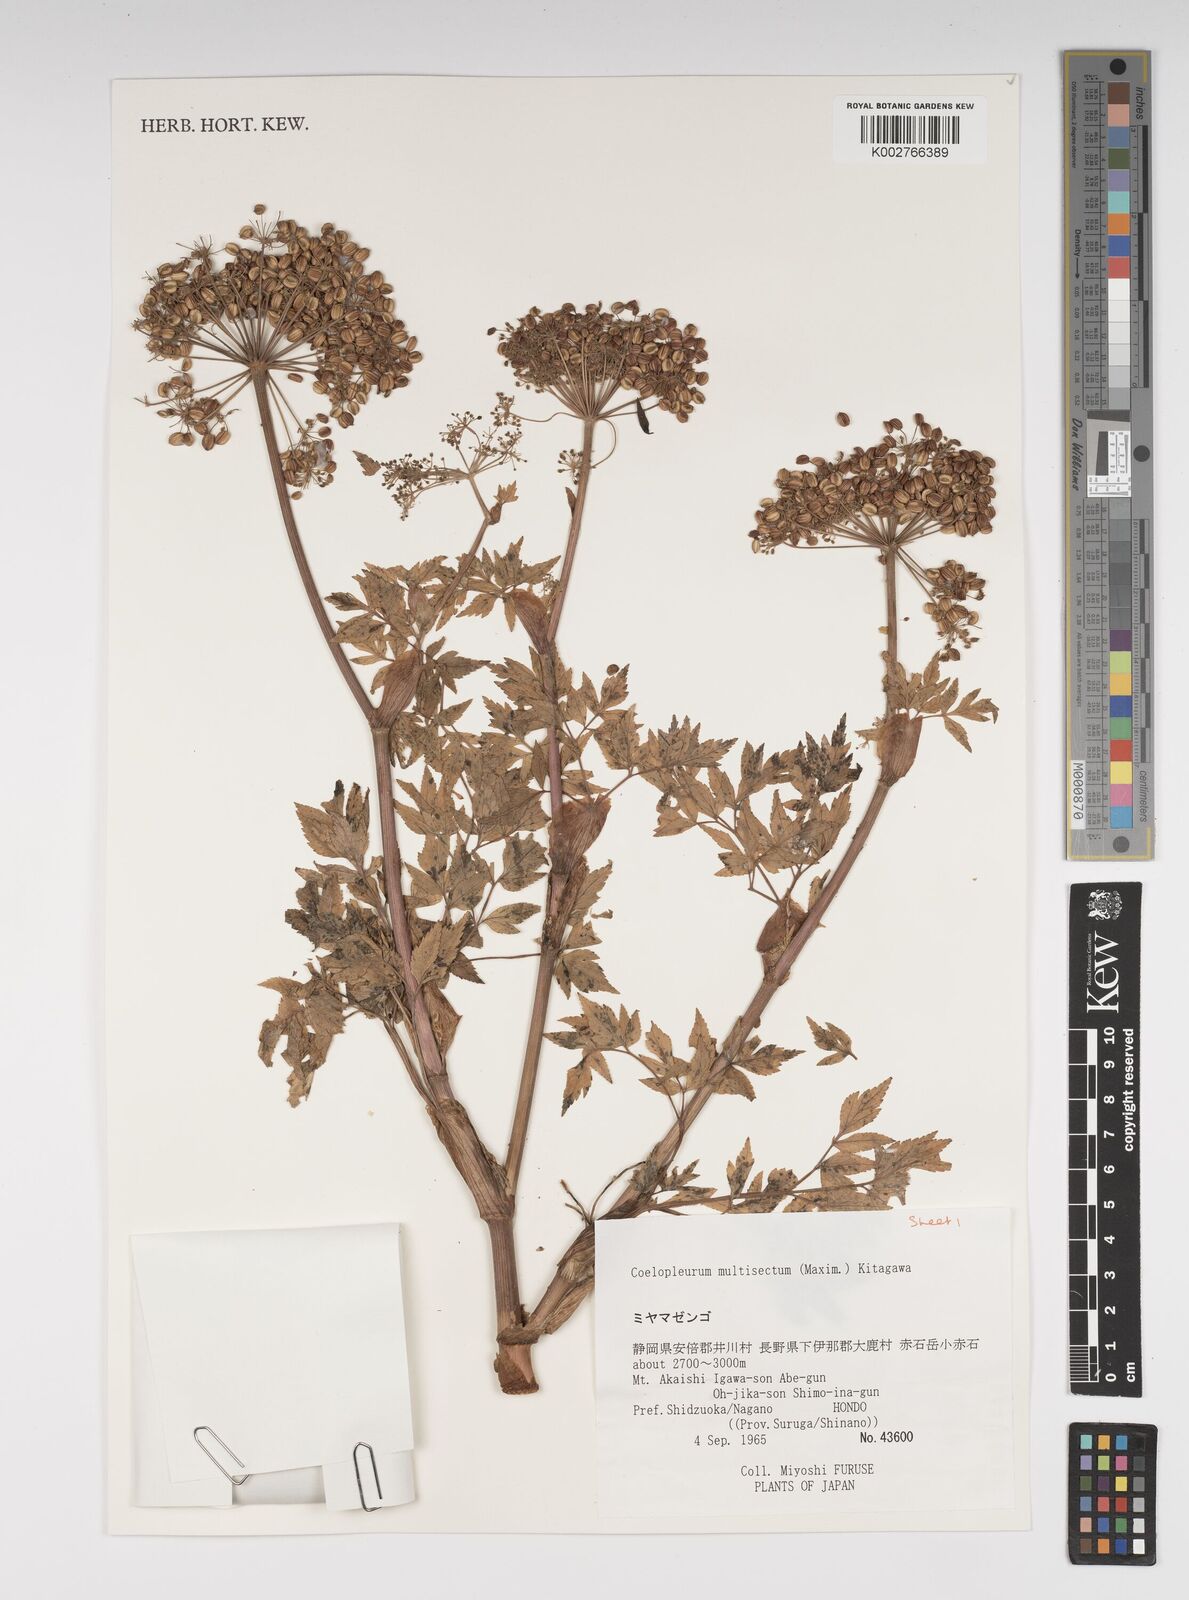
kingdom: Plantae
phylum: Tracheophyta
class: Magnoliopsida
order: Apiales
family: Apiaceae
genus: Angelica
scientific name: Angelica
